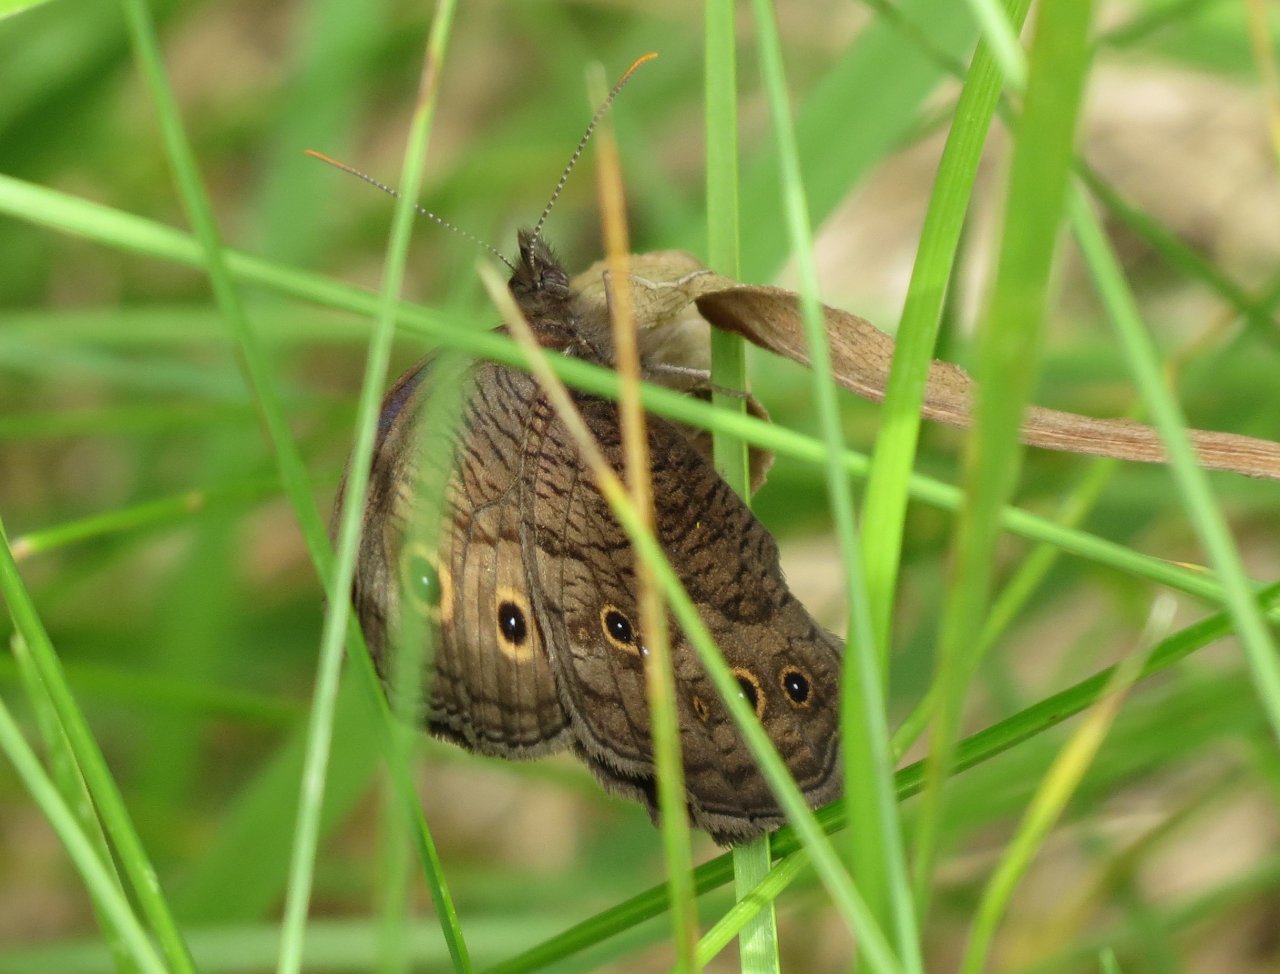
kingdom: Animalia
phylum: Arthropoda
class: Insecta
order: Lepidoptera
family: Nymphalidae
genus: Cercyonis
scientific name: Cercyonis pegala
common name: Common Wood-Nymph
